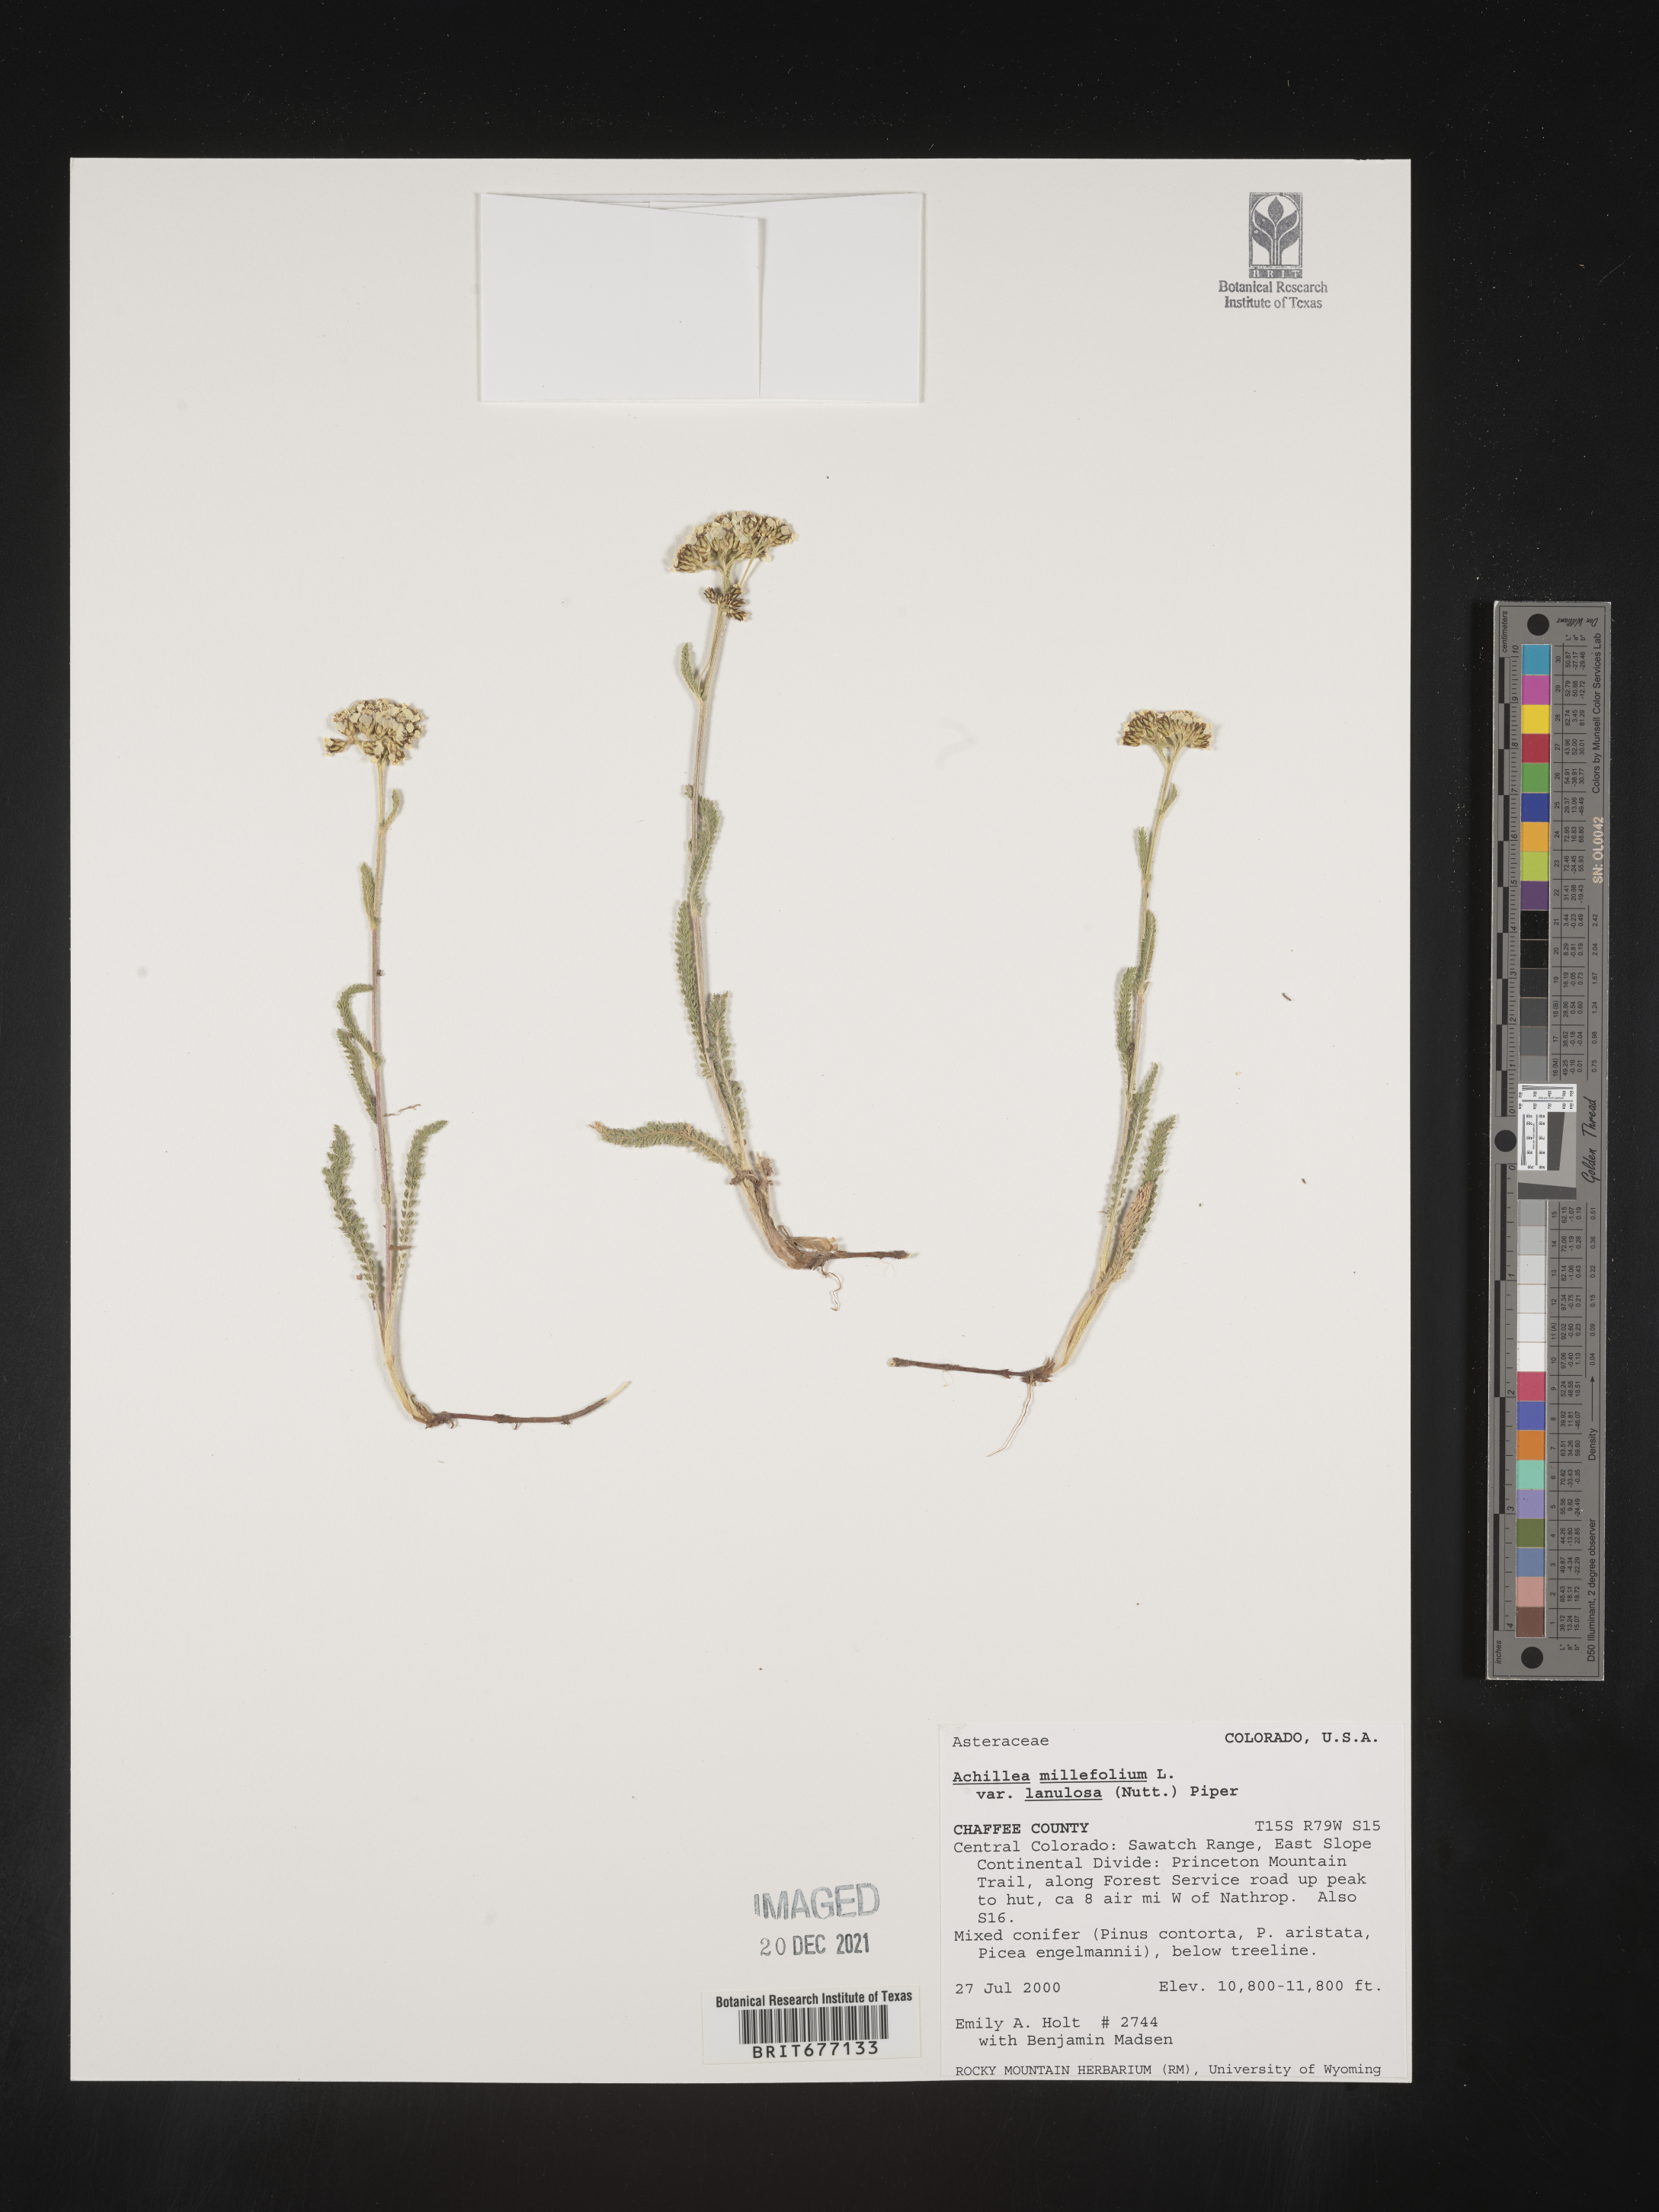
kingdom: Plantae
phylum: Tracheophyta
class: Magnoliopsida
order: Asterales
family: Asteraceae
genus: Achillea
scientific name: Achillea millefolium
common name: Yarrow
